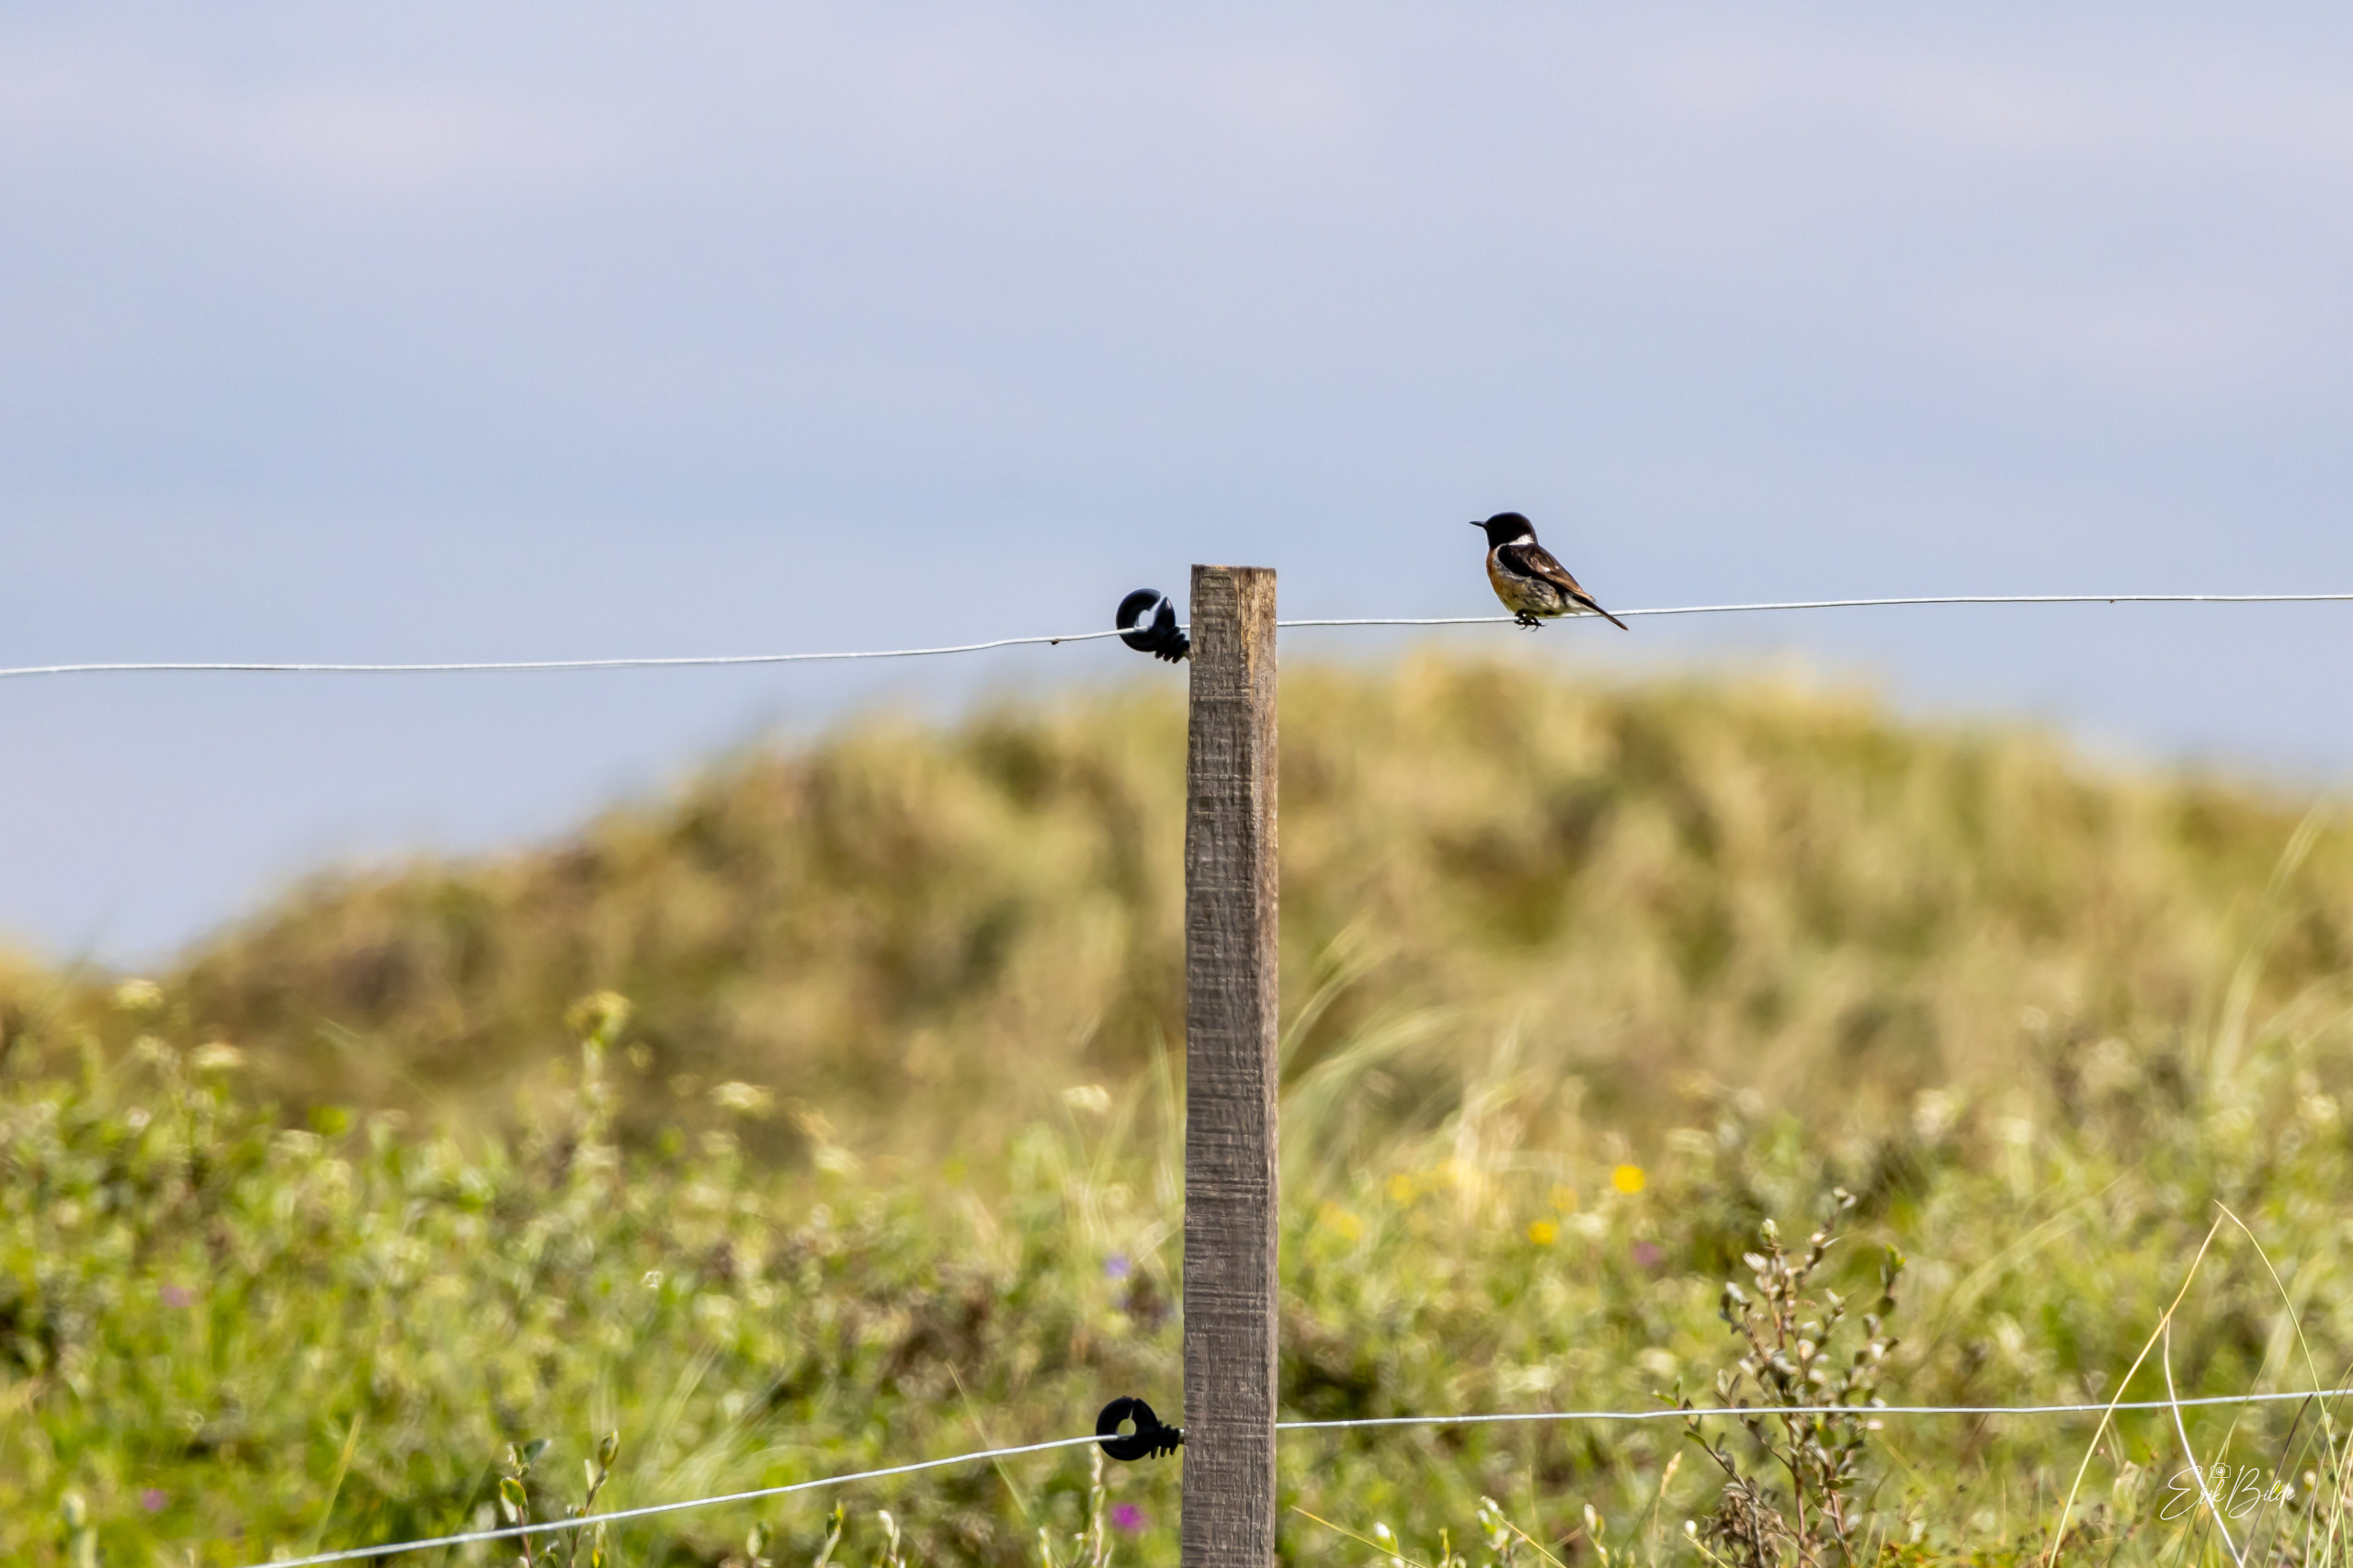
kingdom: Animalia
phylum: Chordata
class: Aves
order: Passeriformes
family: Muscicapidae
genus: Saxicola
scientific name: Saxicola rubicola
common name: Sortstrubet bynkefugl
